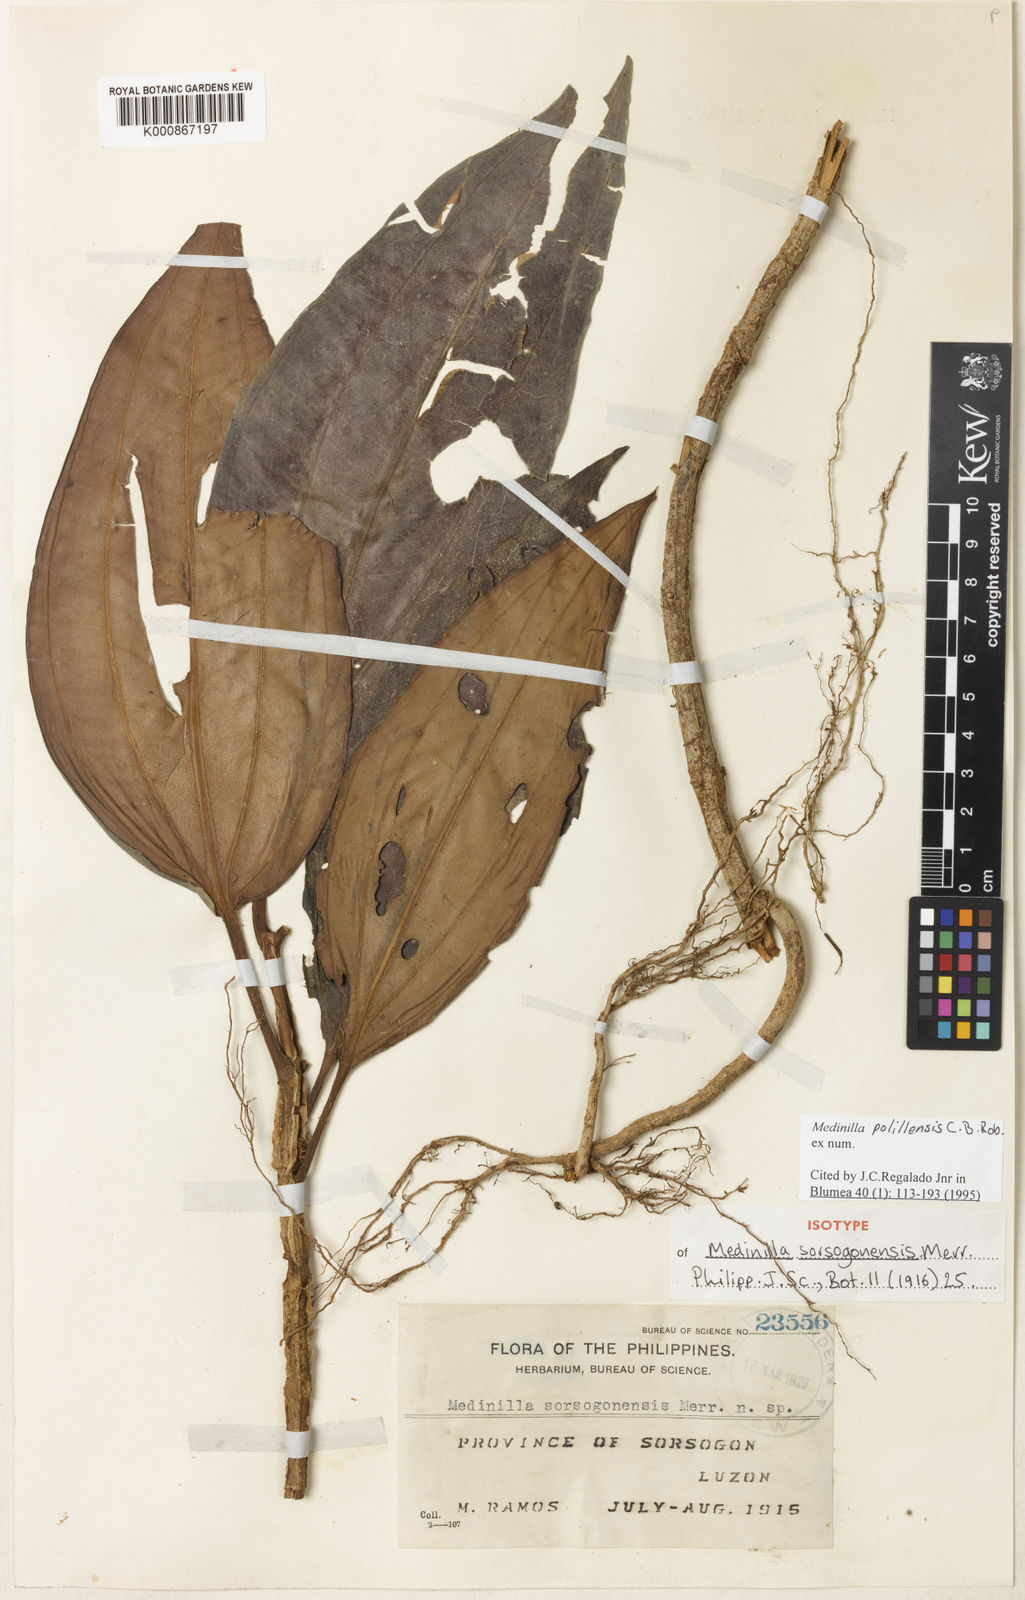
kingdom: Plantae
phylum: Tracheophyta
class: Magnoliopsida
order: Myrtales
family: Melastomataceae
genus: Medinilla
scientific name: Medinilla polillensis
